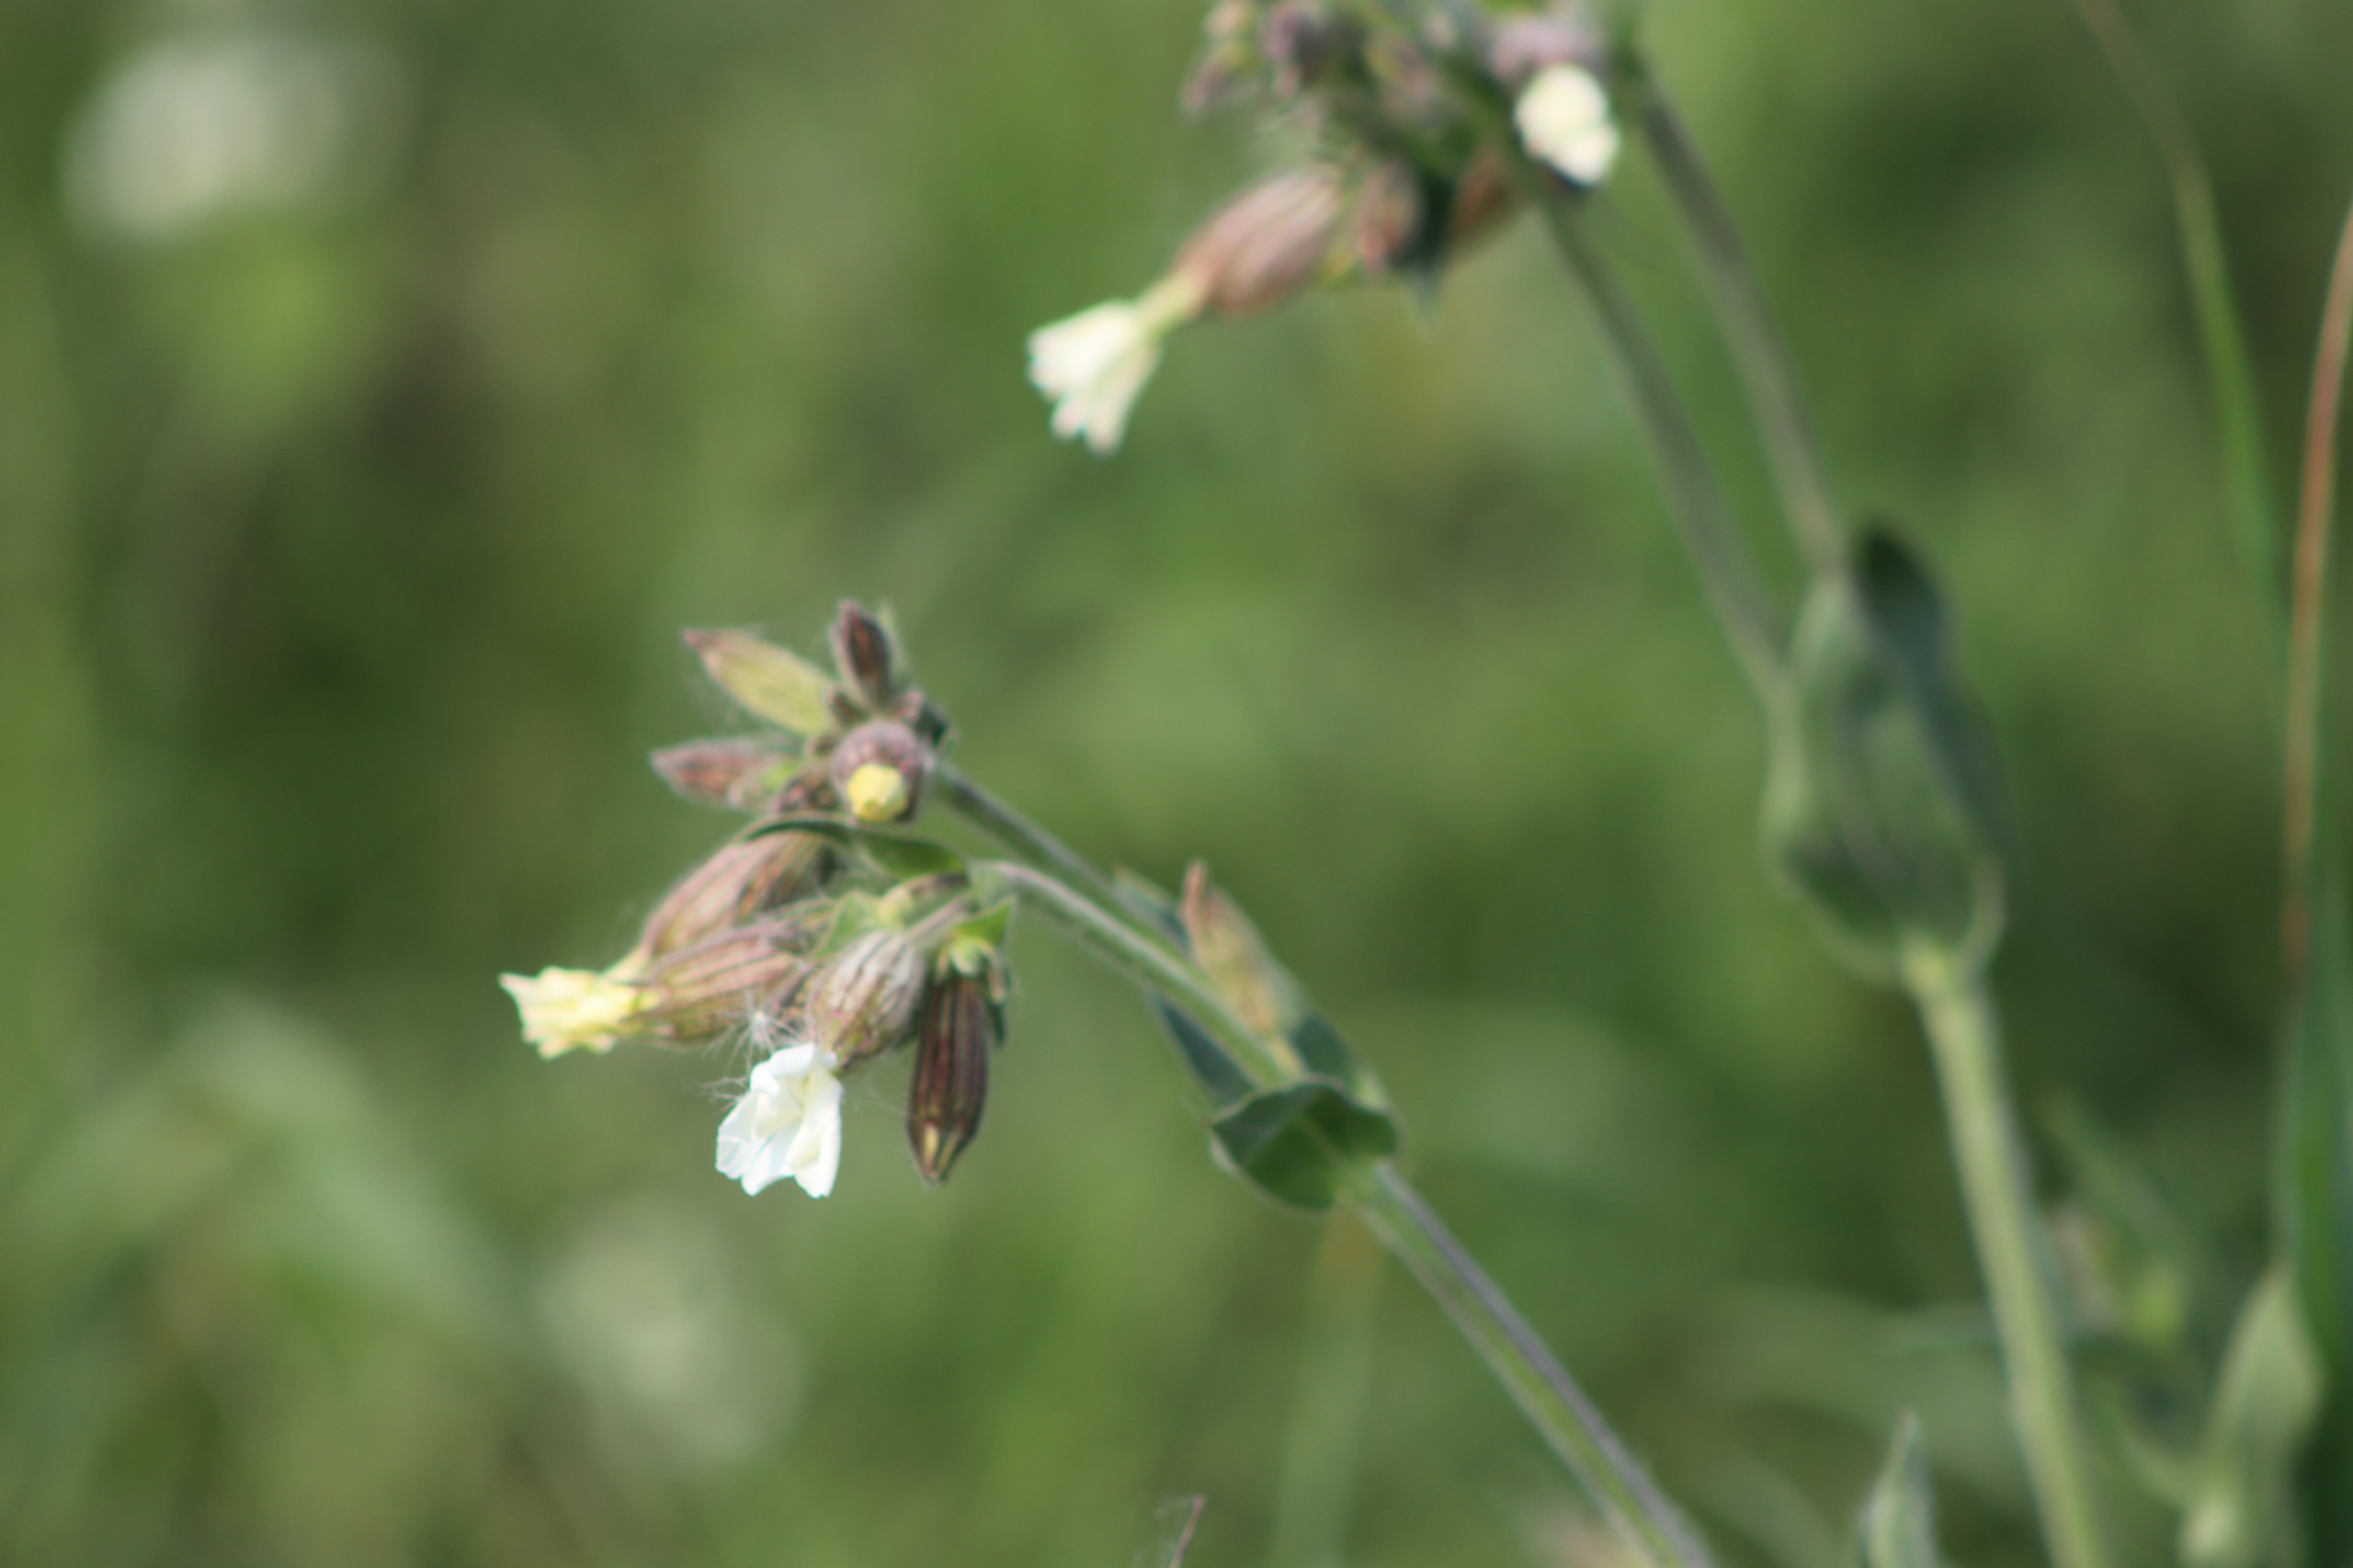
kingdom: Plantae
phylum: Tracheophyta
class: Magnoliopsida
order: Caryophyllales
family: Caryophyllaceae
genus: Silene
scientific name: Silene latifolia
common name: Aftenpragtstjerne
